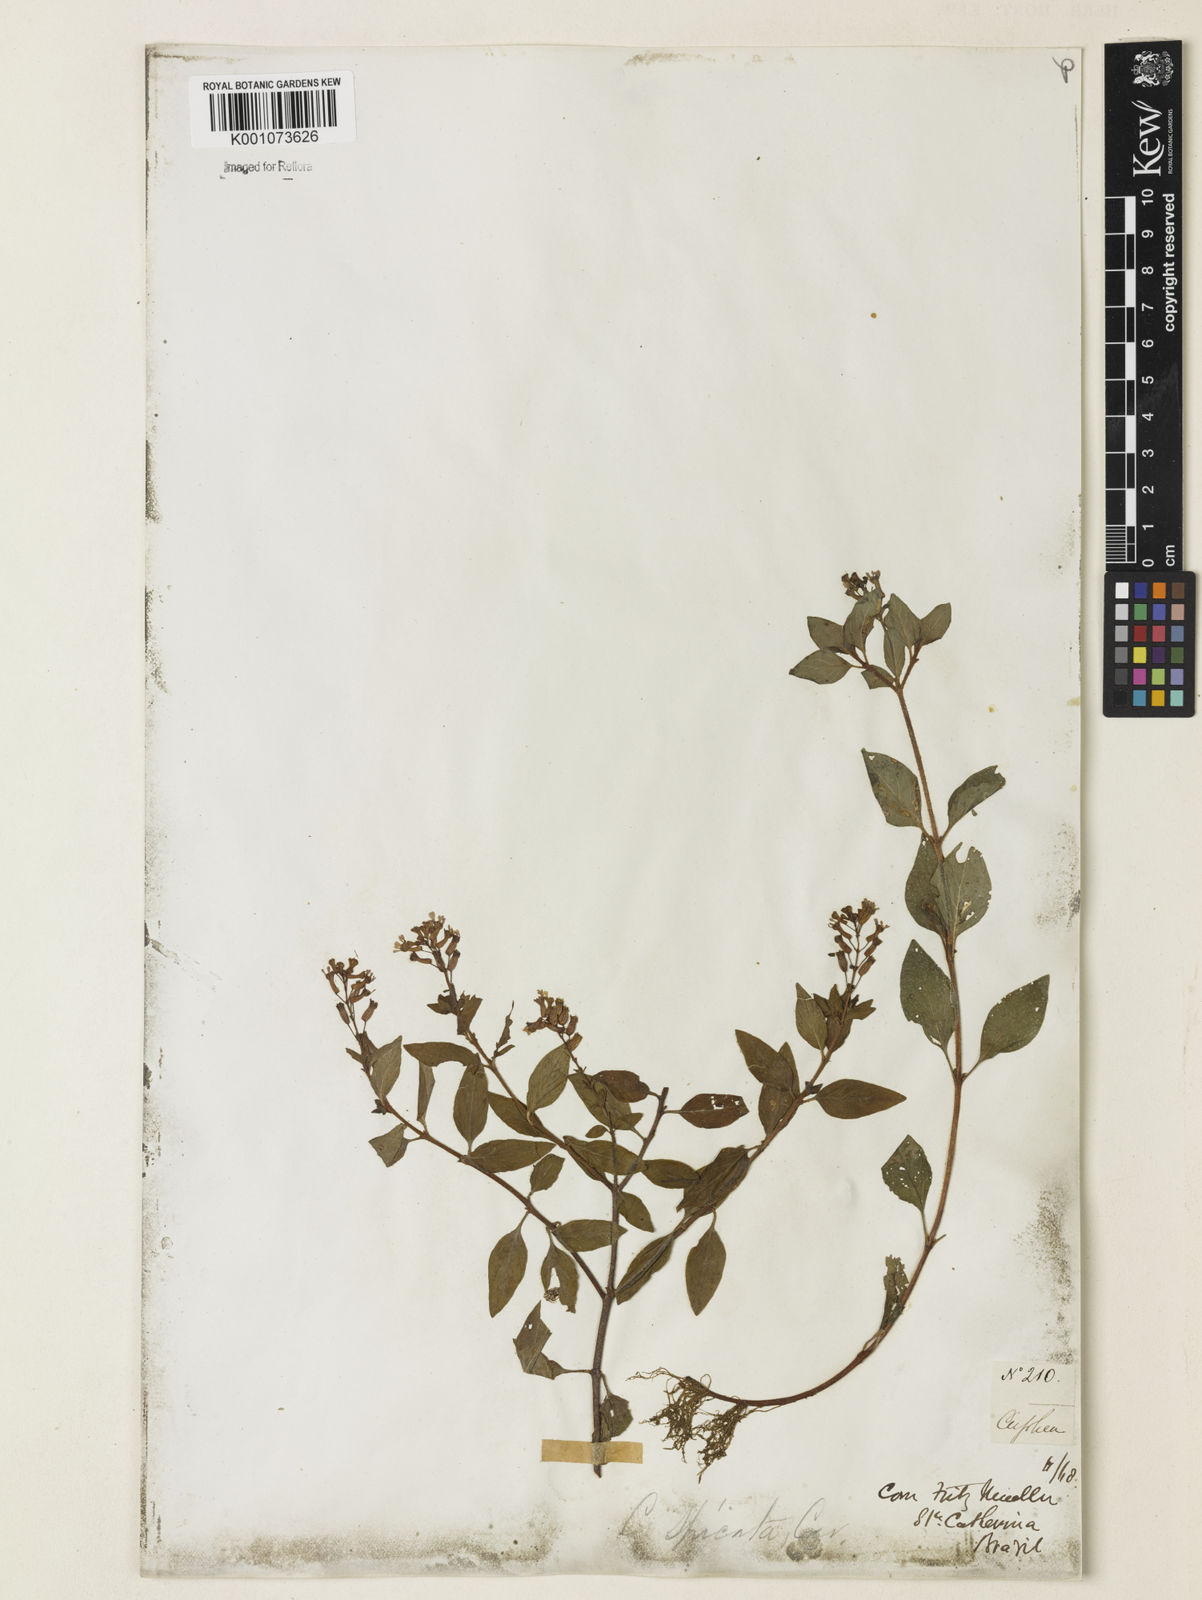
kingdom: Plantae
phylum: Tracheophyta
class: Magnoliopsida
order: Myrtales
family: Lythraceae
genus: Cuphea
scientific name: Cuphea racemosa
